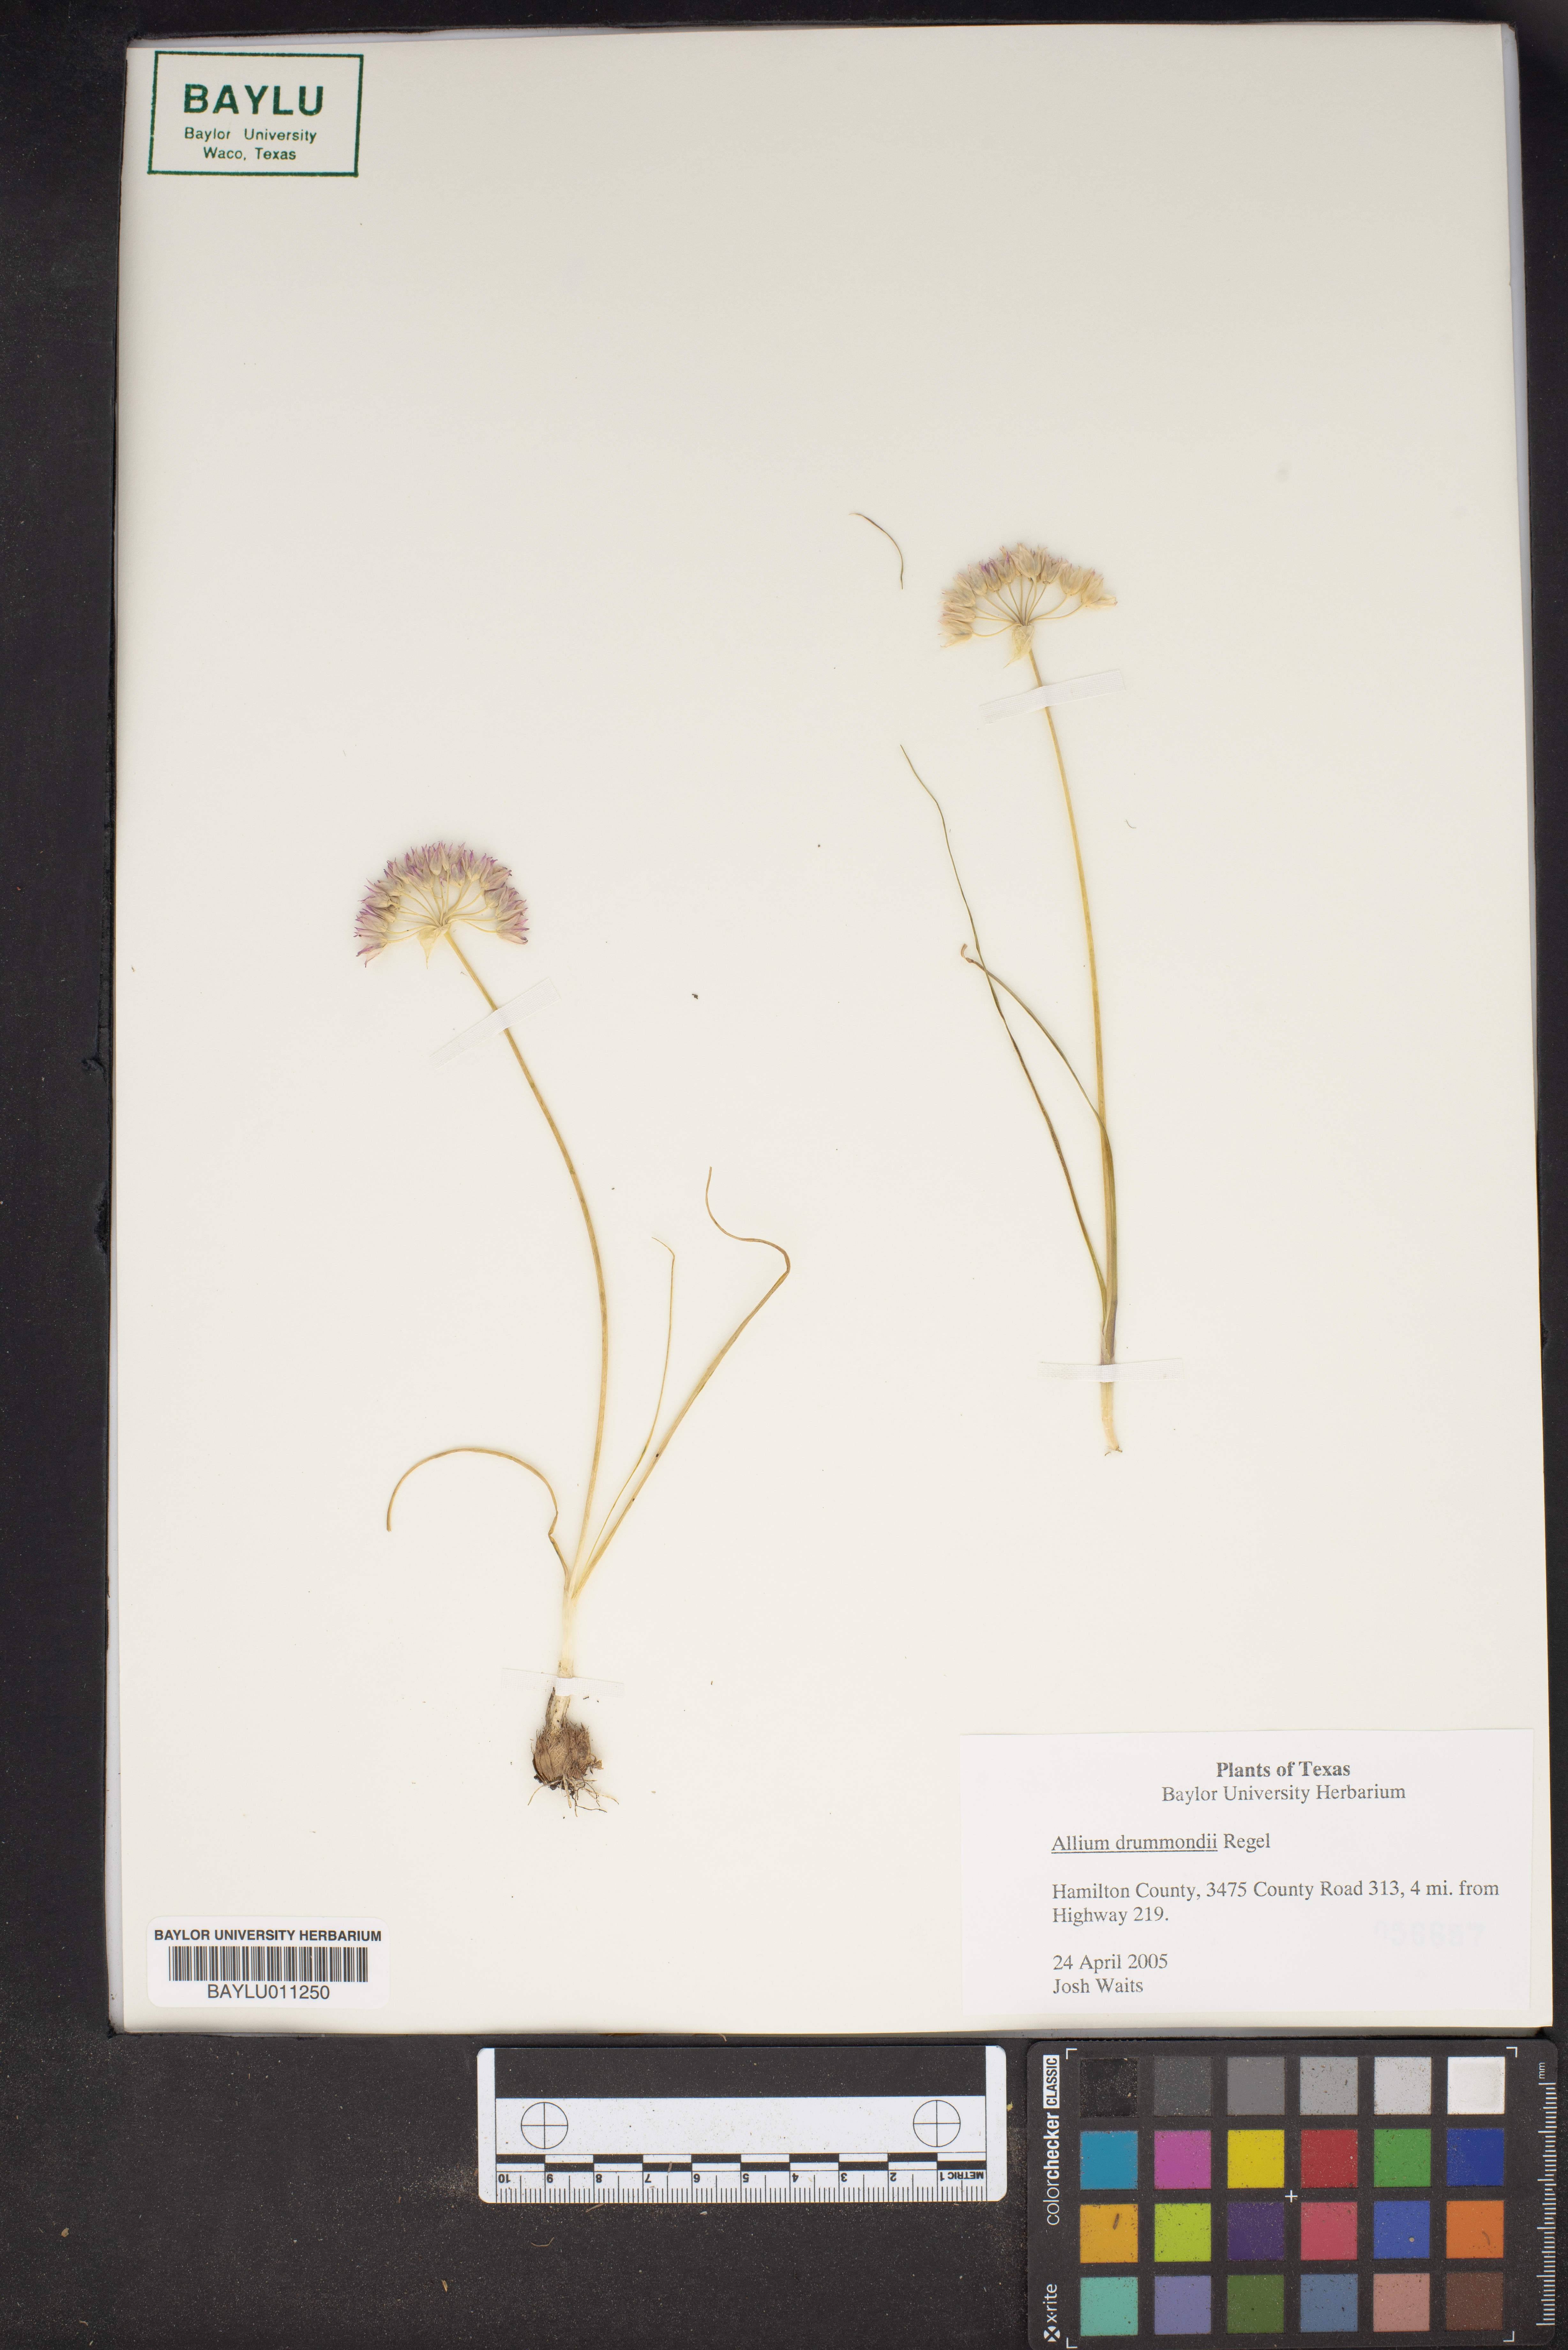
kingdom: Plantae
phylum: Tracheophyta
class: Liliopsida
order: Asparagales
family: Amaryllidaceae
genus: Allium
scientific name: Allium drummondii
